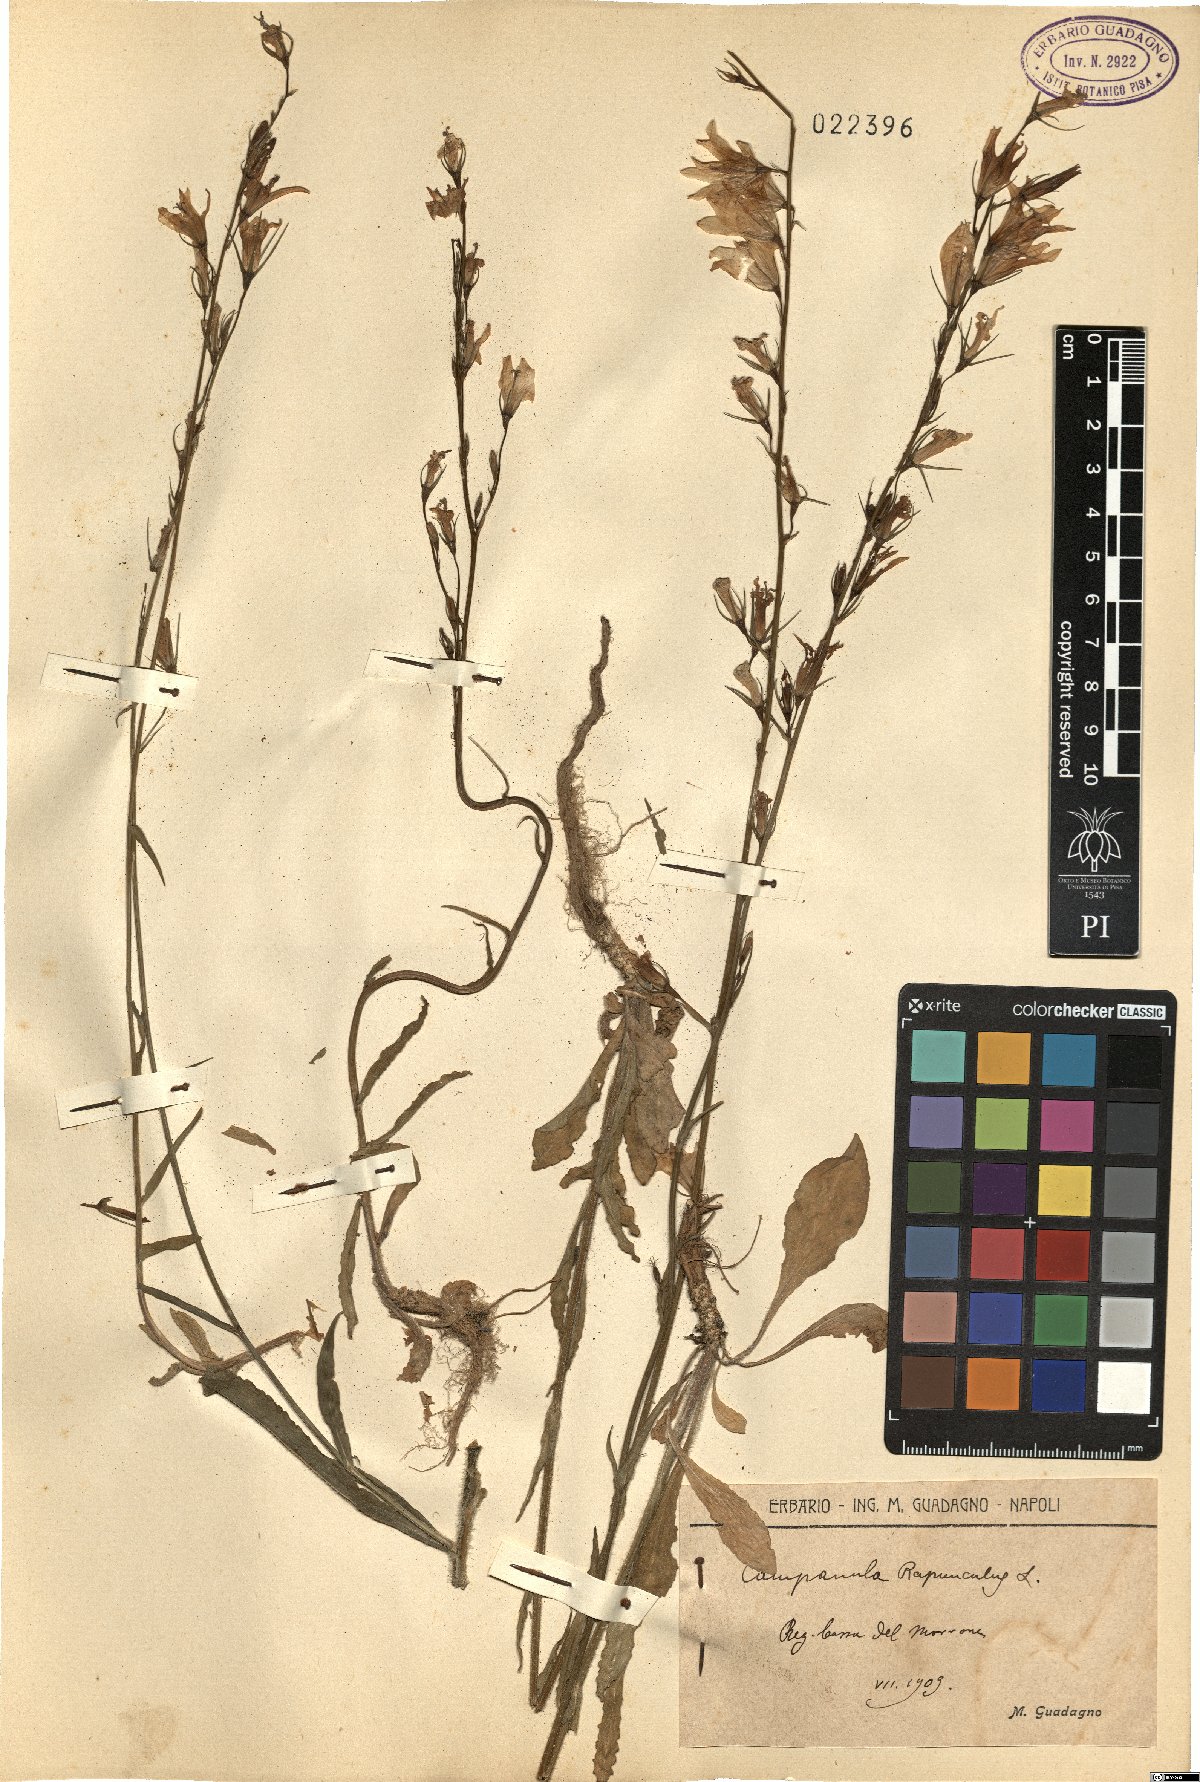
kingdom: Plantae
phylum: Tracheophyta
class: Magnoliopsida
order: Asterales
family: Campanulaceae
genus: Campanula
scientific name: Campanula rapunculus
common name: Rampion bellflower
